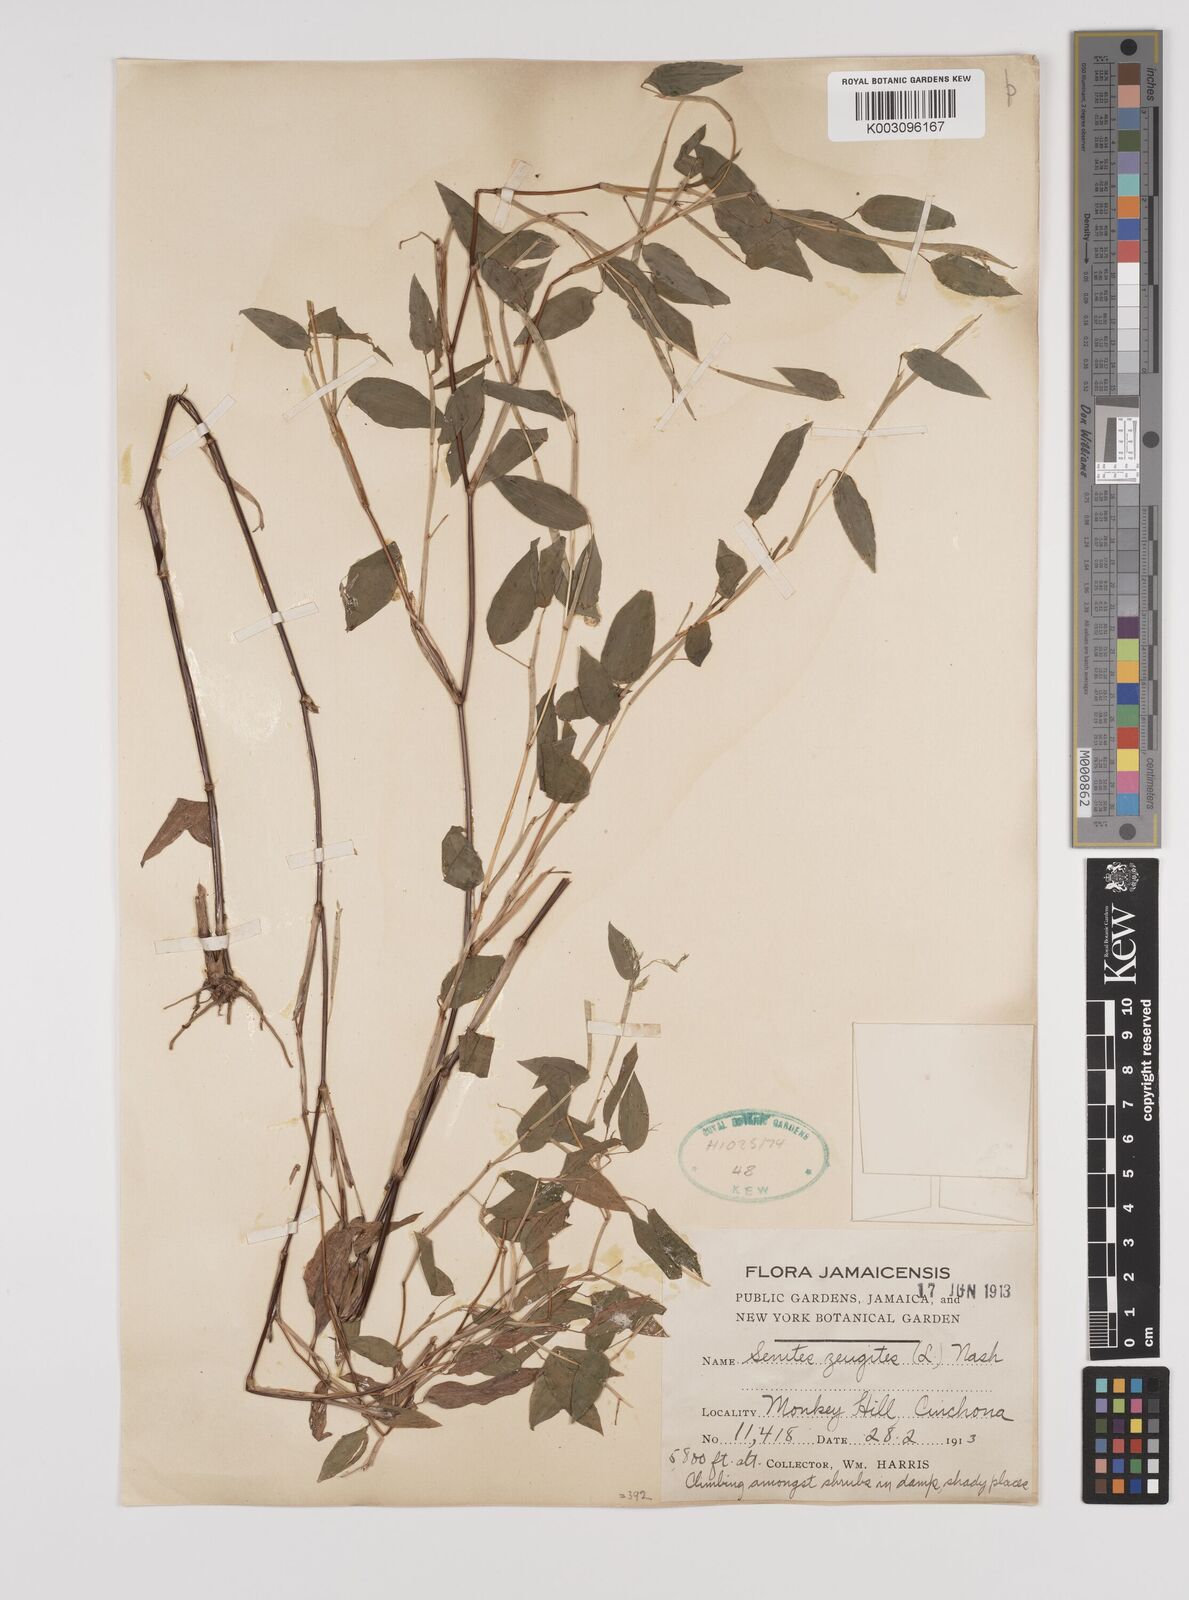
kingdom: Plantae
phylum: Tracheophyta
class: Liliopsida
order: Poales
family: Poaceae
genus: Zeugites
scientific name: Zeugites americanus
